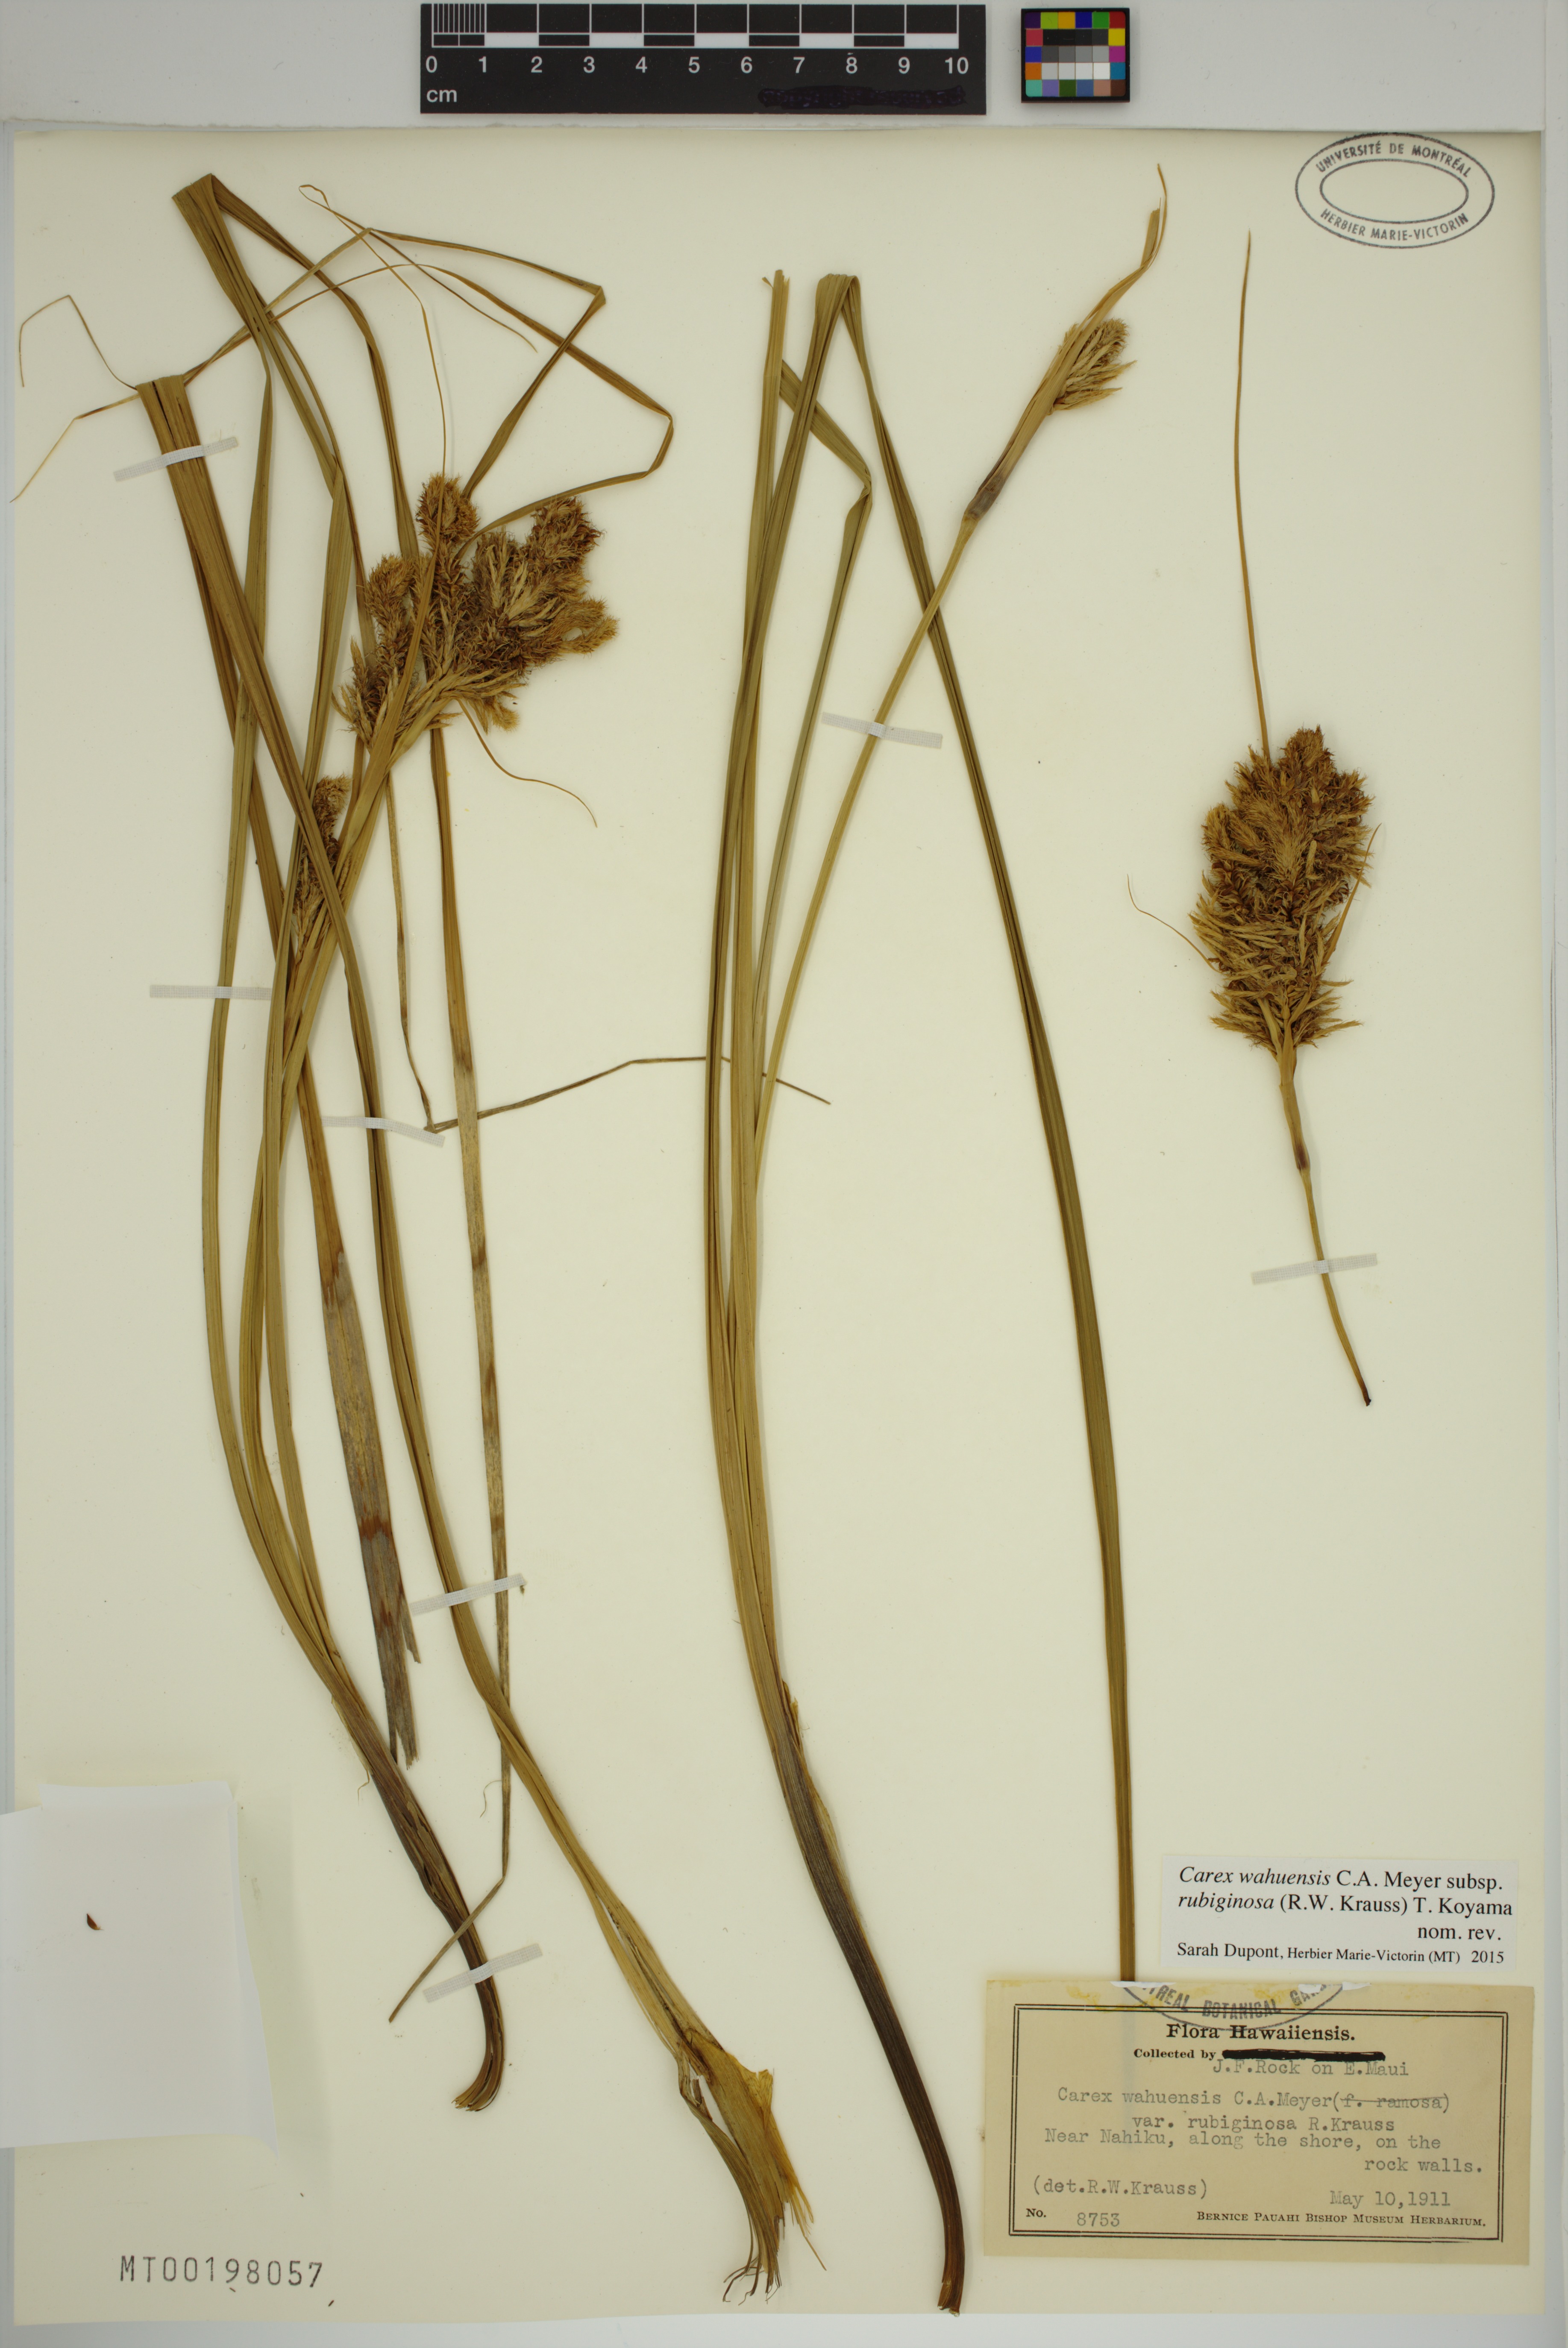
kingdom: Plantae
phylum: Tracheophyta
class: Liliopsida
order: Poales
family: Cyperaceae
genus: Carex
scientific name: Carex wahuensis
